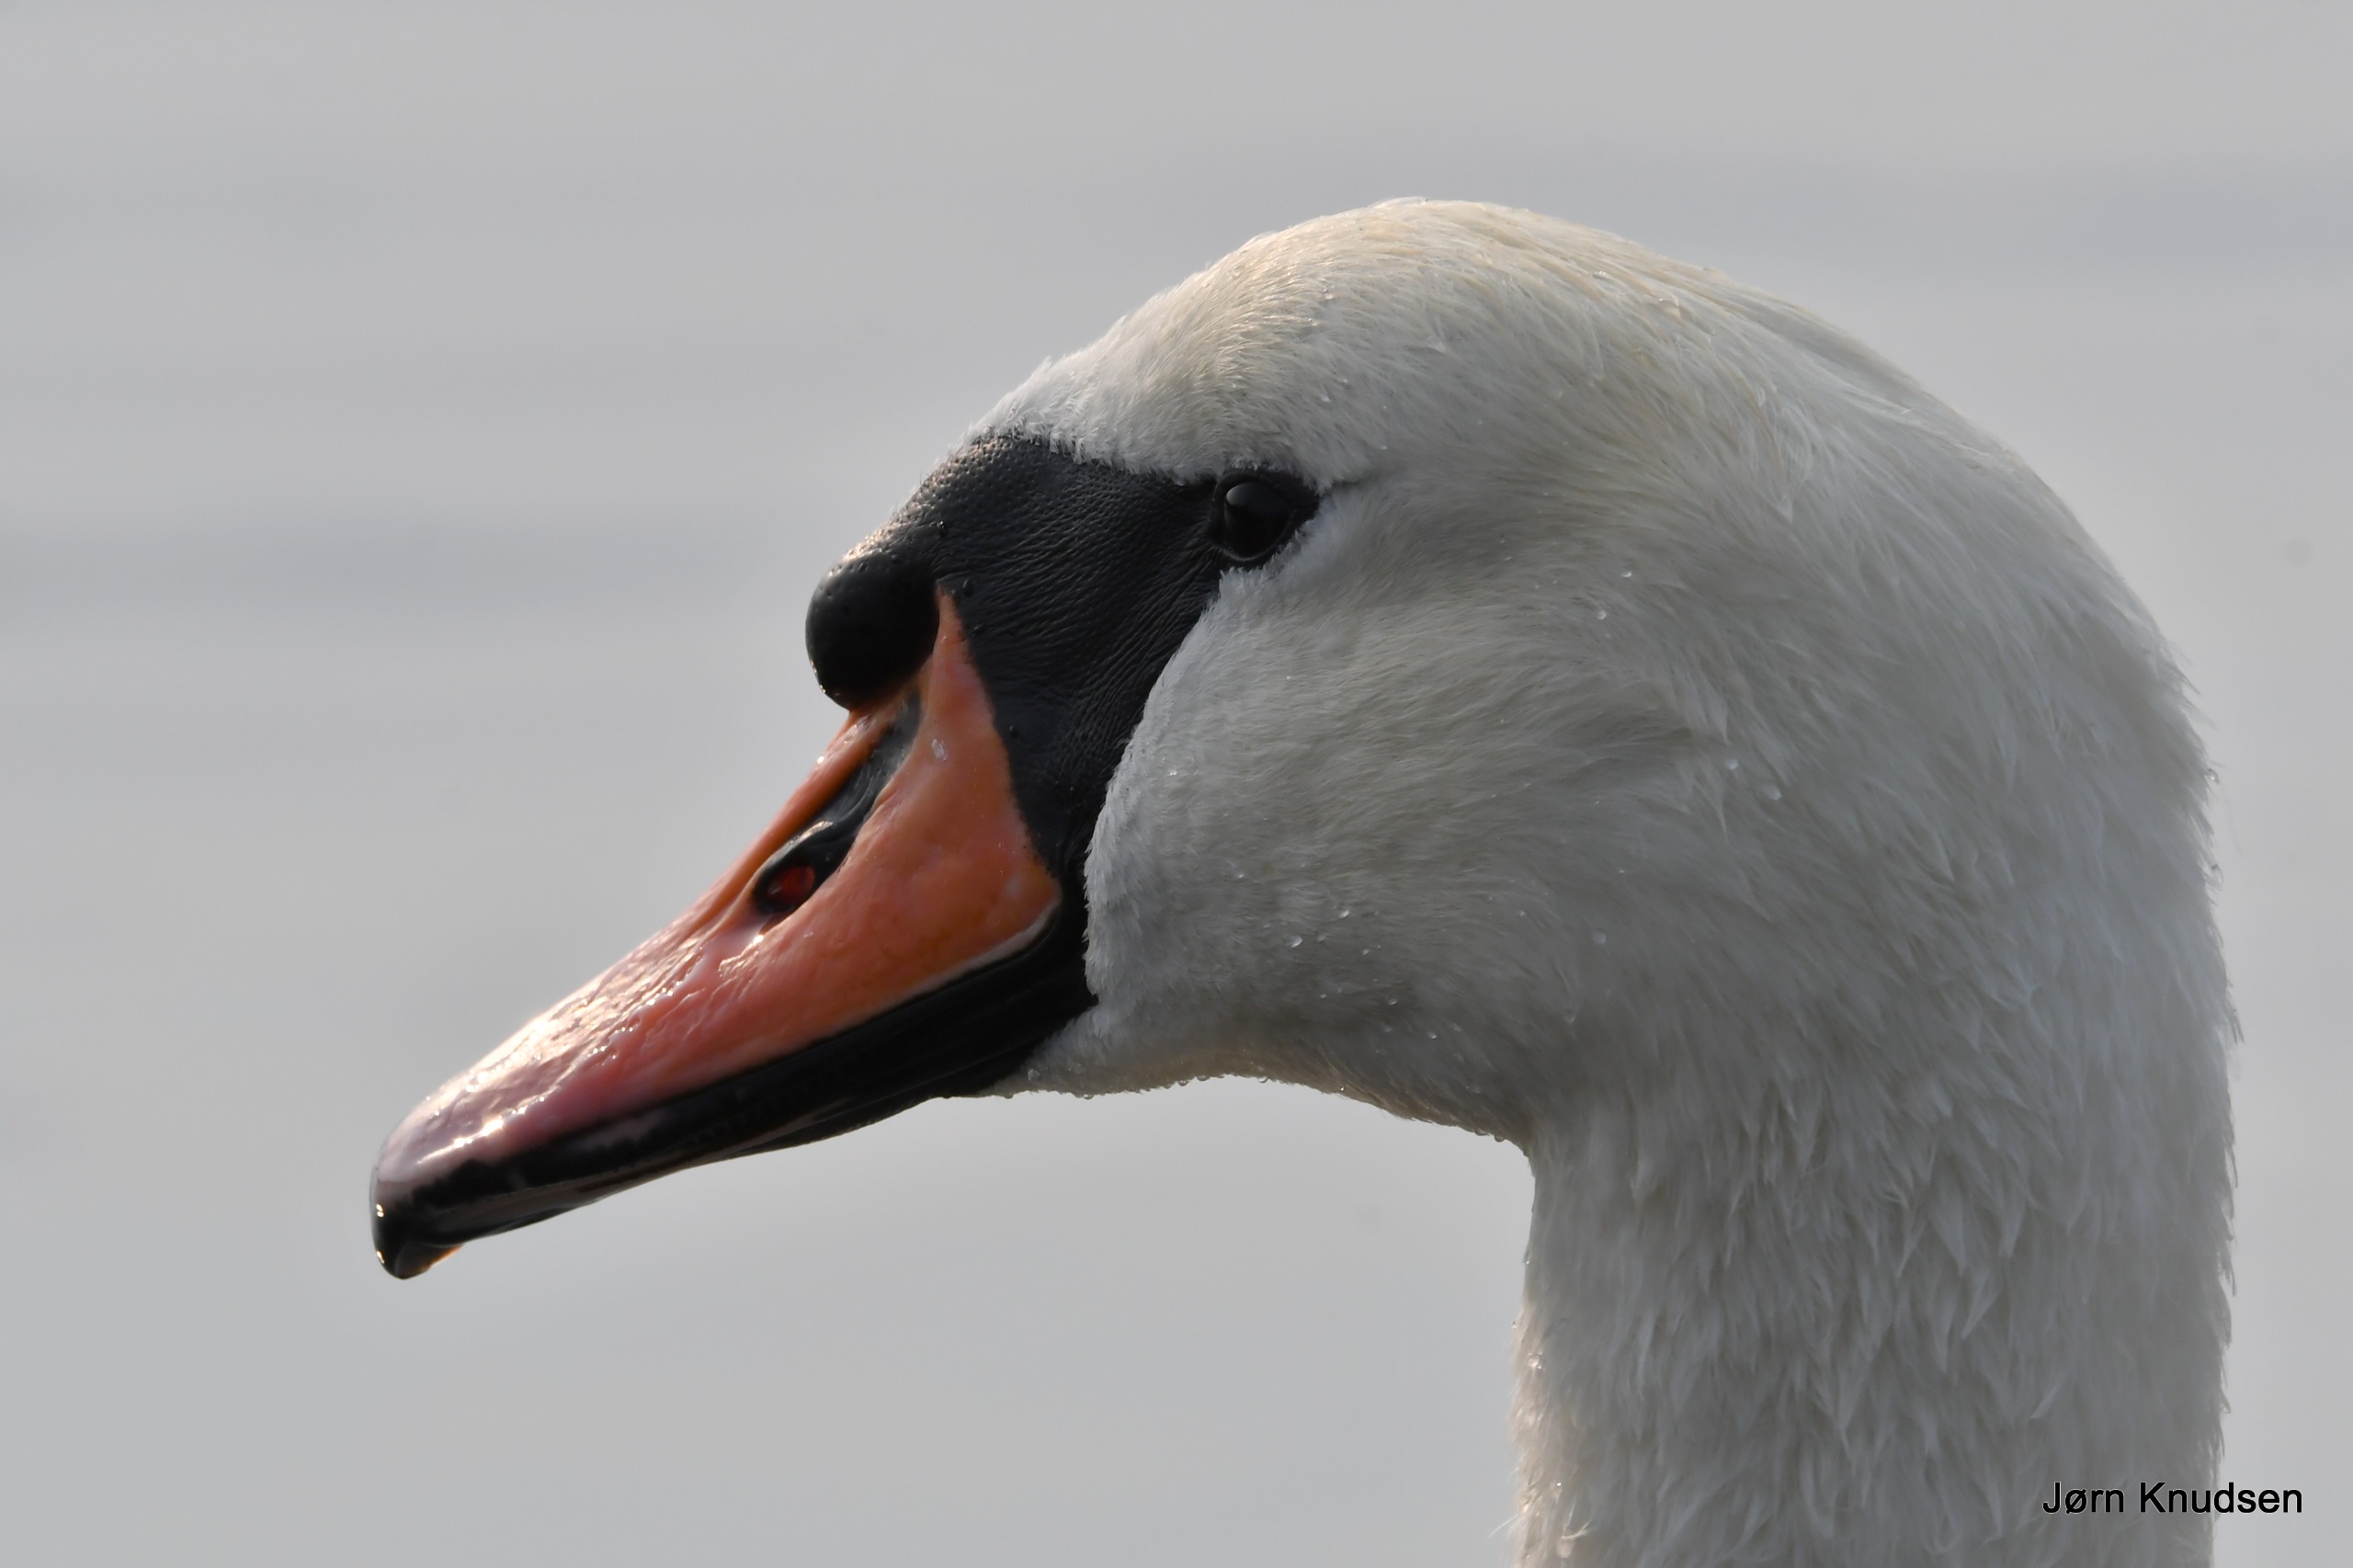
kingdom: Animalia
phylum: Chordata
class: Aves
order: Anseriformes
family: Anatidae
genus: Cygnus
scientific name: Cygnus olor
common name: Knopsvane
